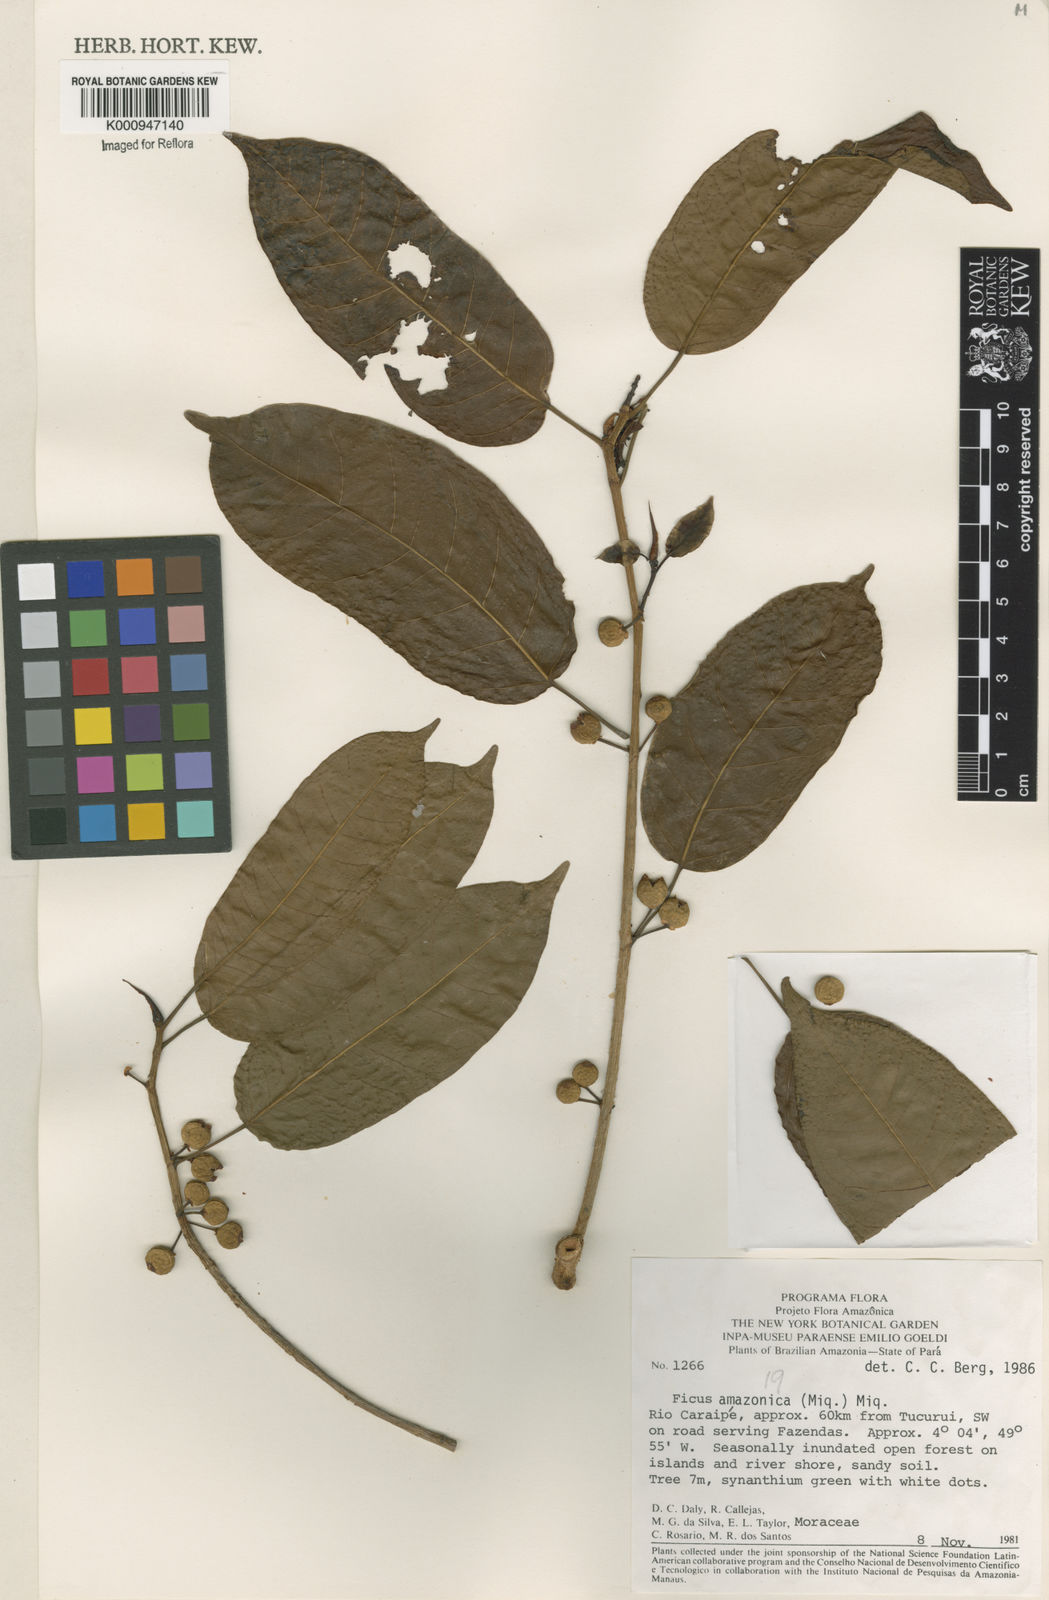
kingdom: Plantae
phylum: Tracheophyta
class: Magnoliopsida
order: Rosales
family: Moraceae
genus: Ficus
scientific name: Ficus amazonica
